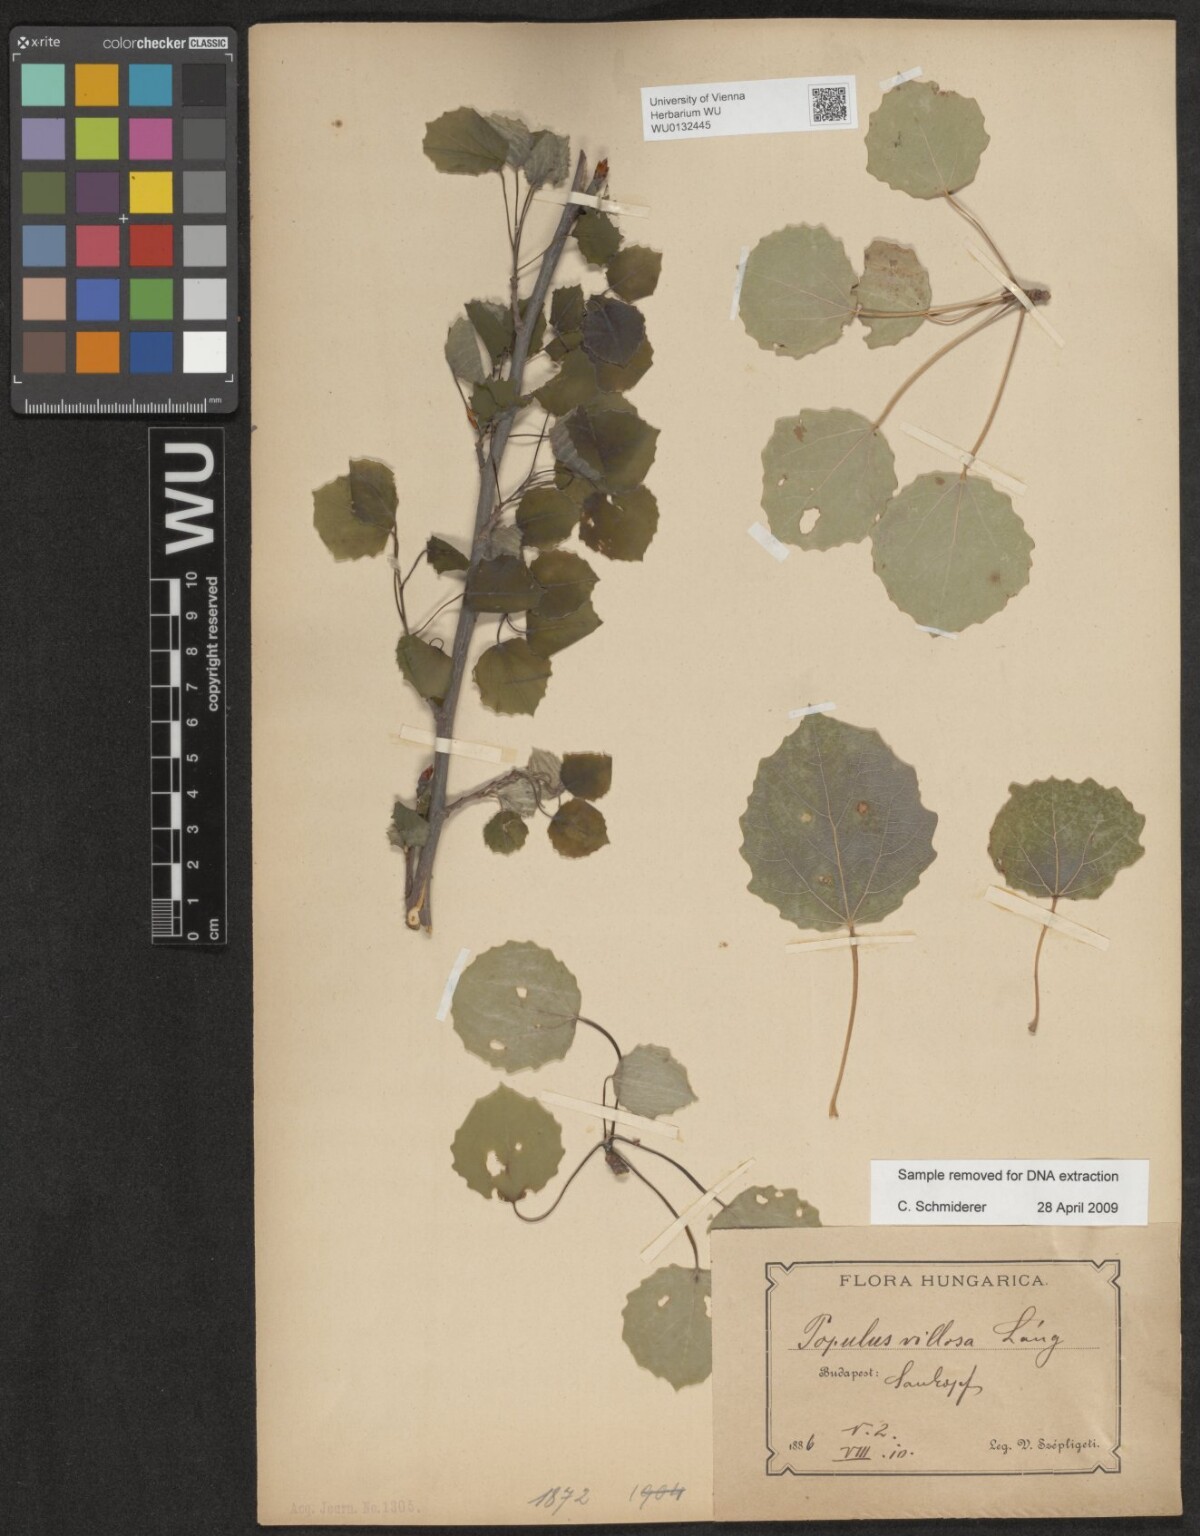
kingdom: Plantae
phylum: Tracheophyta
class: Magnoliopsida
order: Malpighiales
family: Salicaceae
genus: Populus
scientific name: Populus tremula
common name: European aspen
